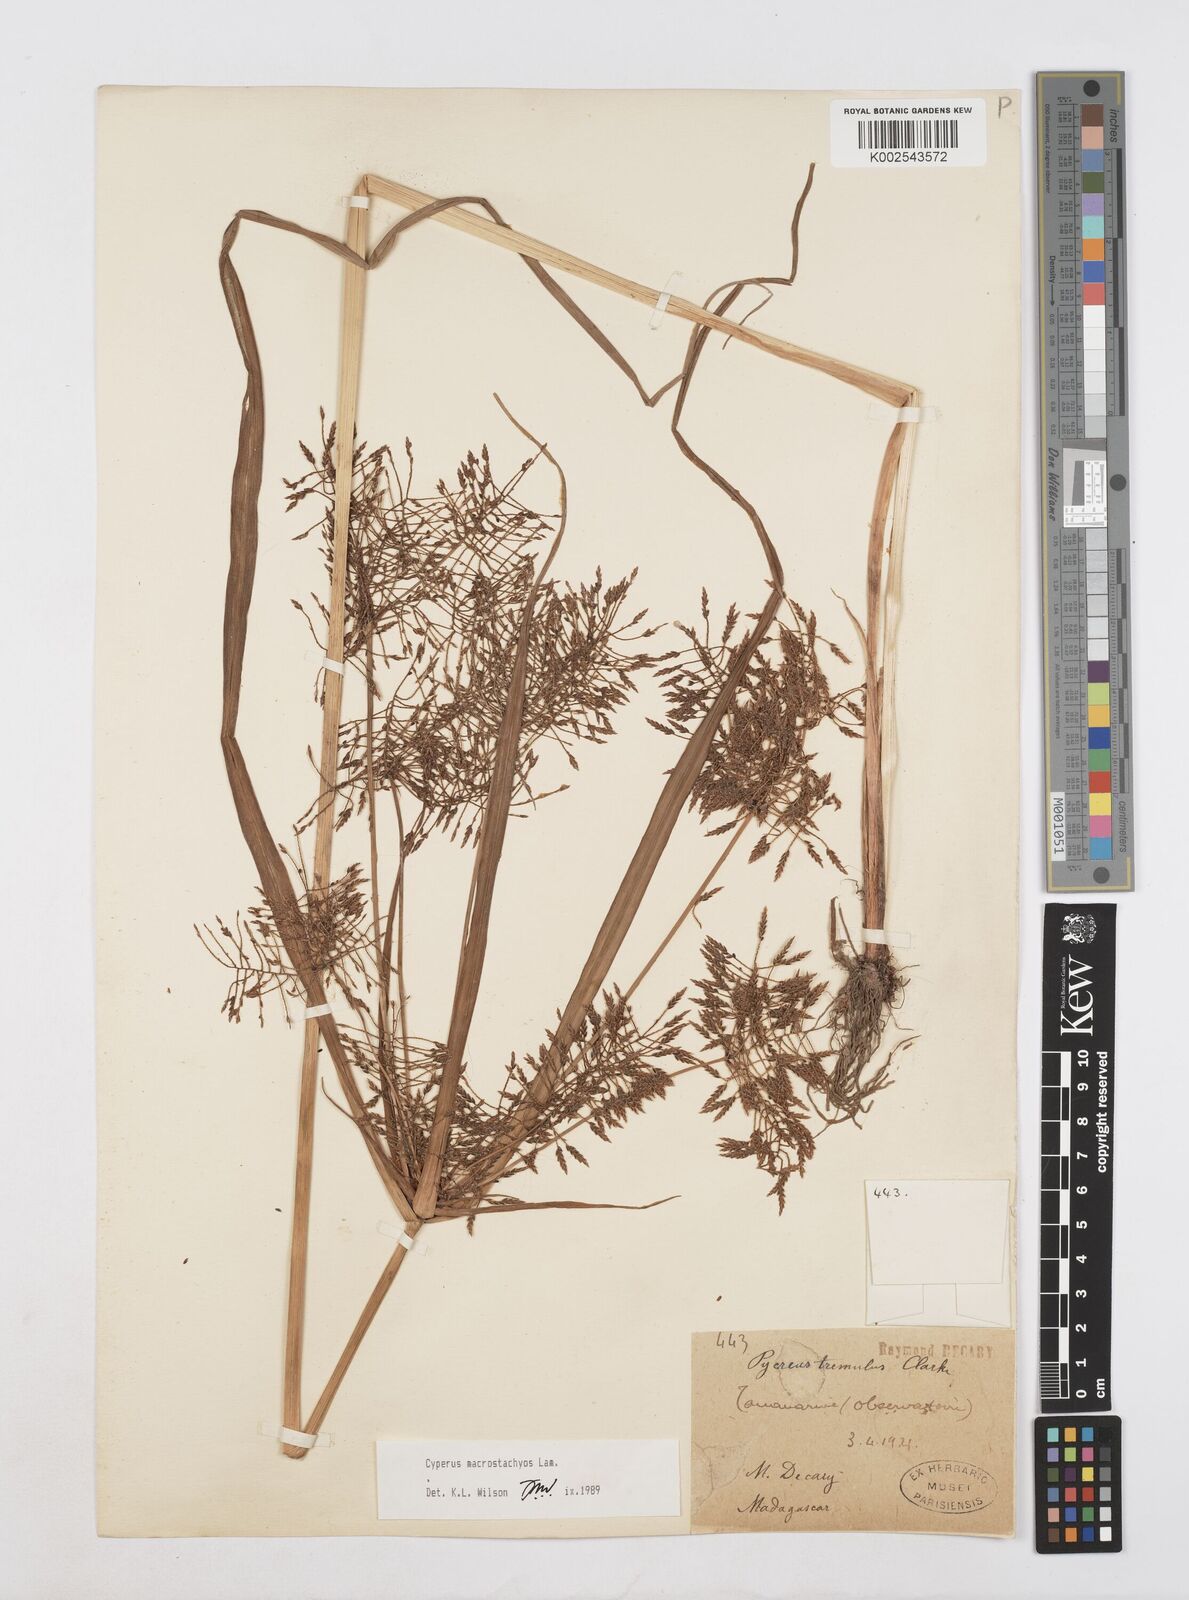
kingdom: Plantae
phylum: Tracheophyta
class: Liliopsida
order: Poales
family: Cyperaceae
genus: Cyperus
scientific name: Cyperus macrostachyos
